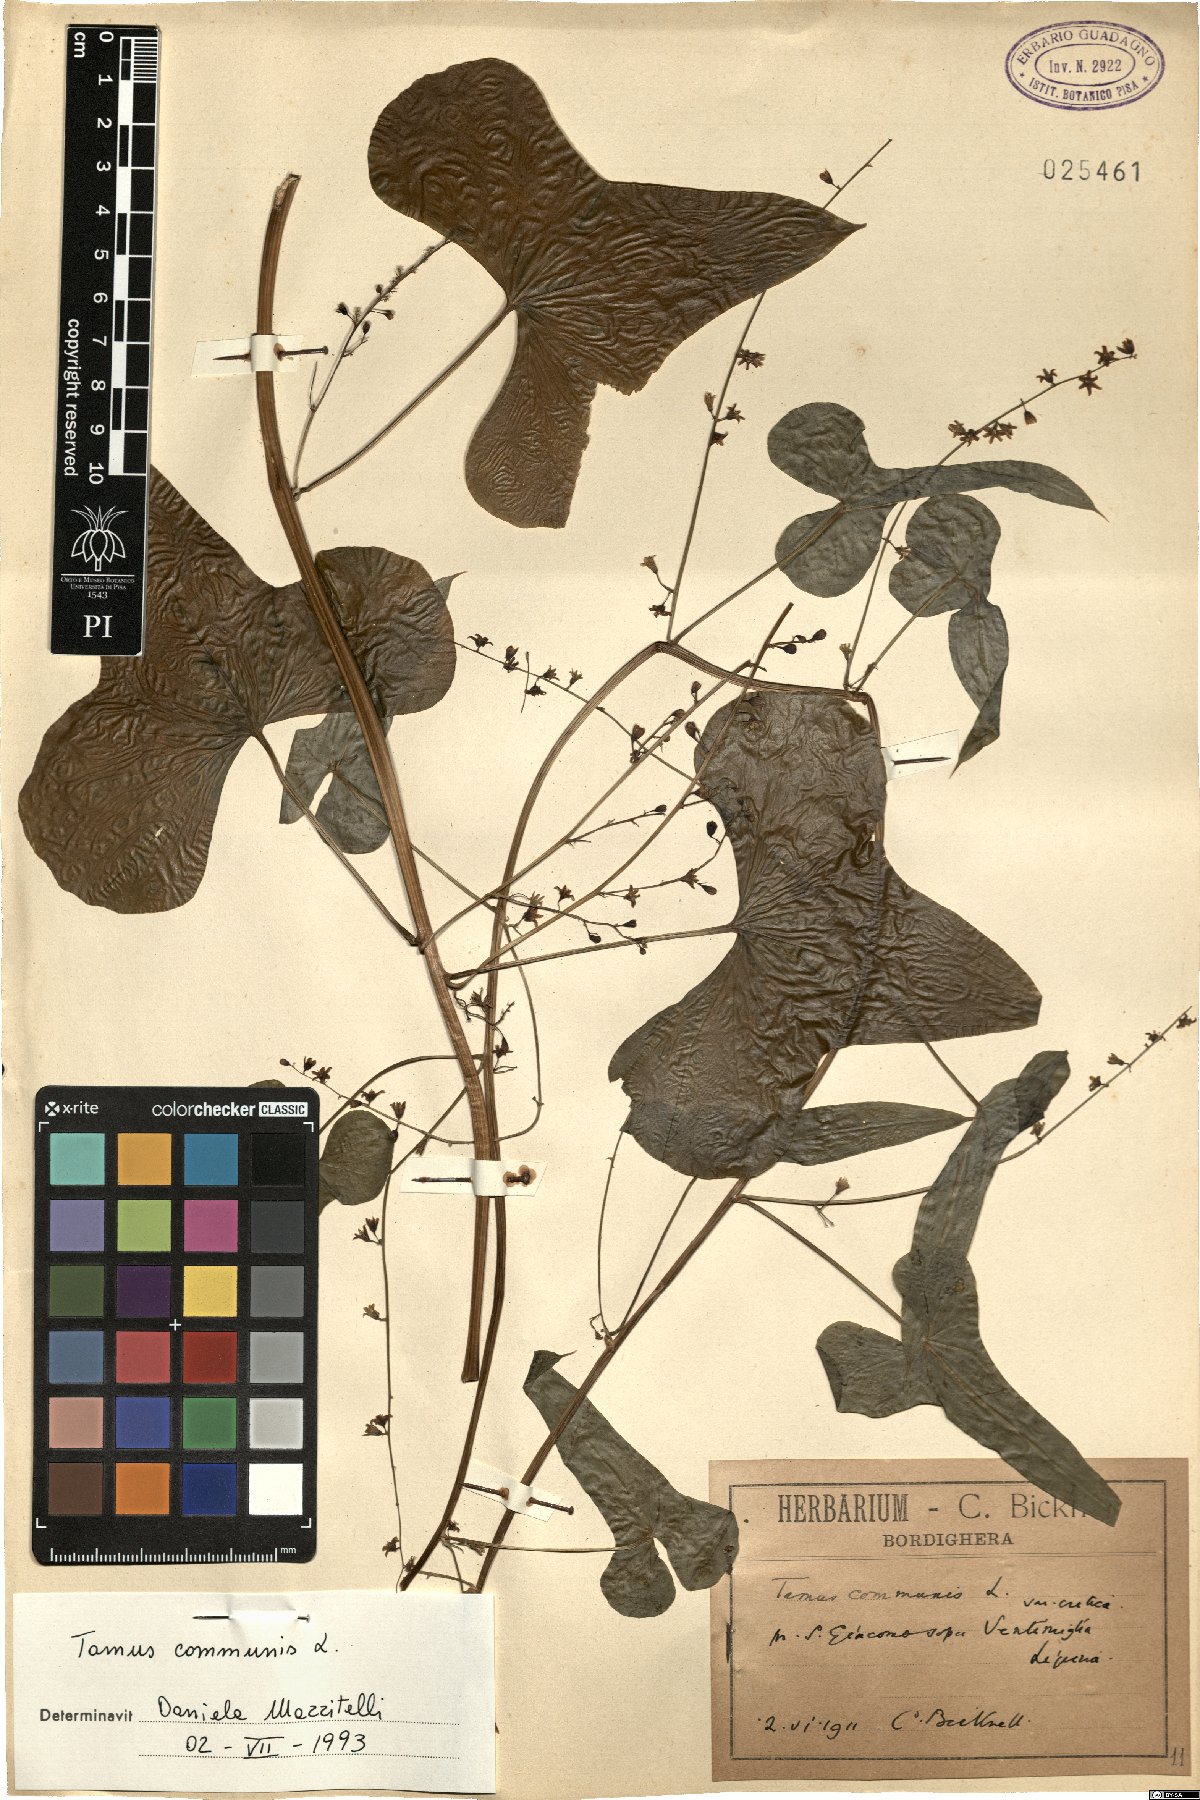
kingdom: Plantae
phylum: Tracheophyta
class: Liliopsida
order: Dioscoreales
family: Dioscoreaceae
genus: Dioscorea
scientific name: Dioscorea communis
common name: Black-bindweed
